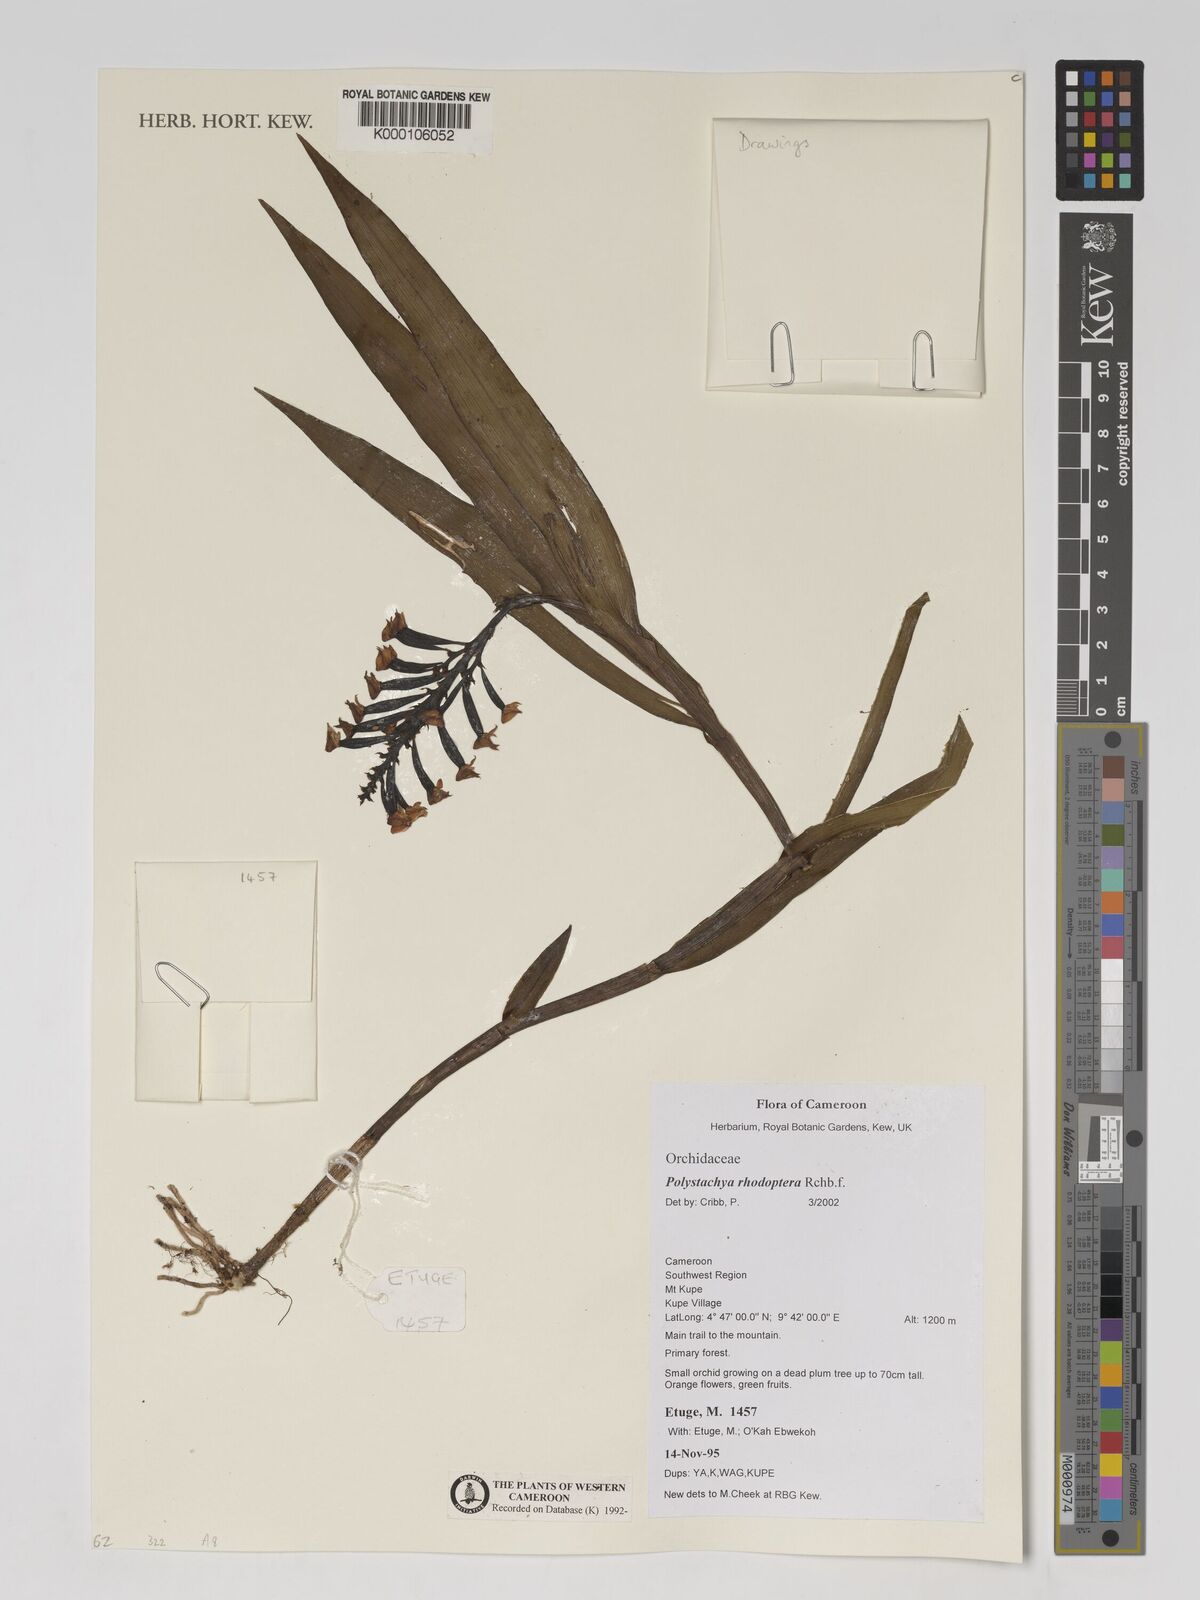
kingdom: Plantae
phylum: Tracheophyta
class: Liliopsida
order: Asparagales
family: Orchidaceae
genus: Polystachya
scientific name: Polystachya rhodoptera
